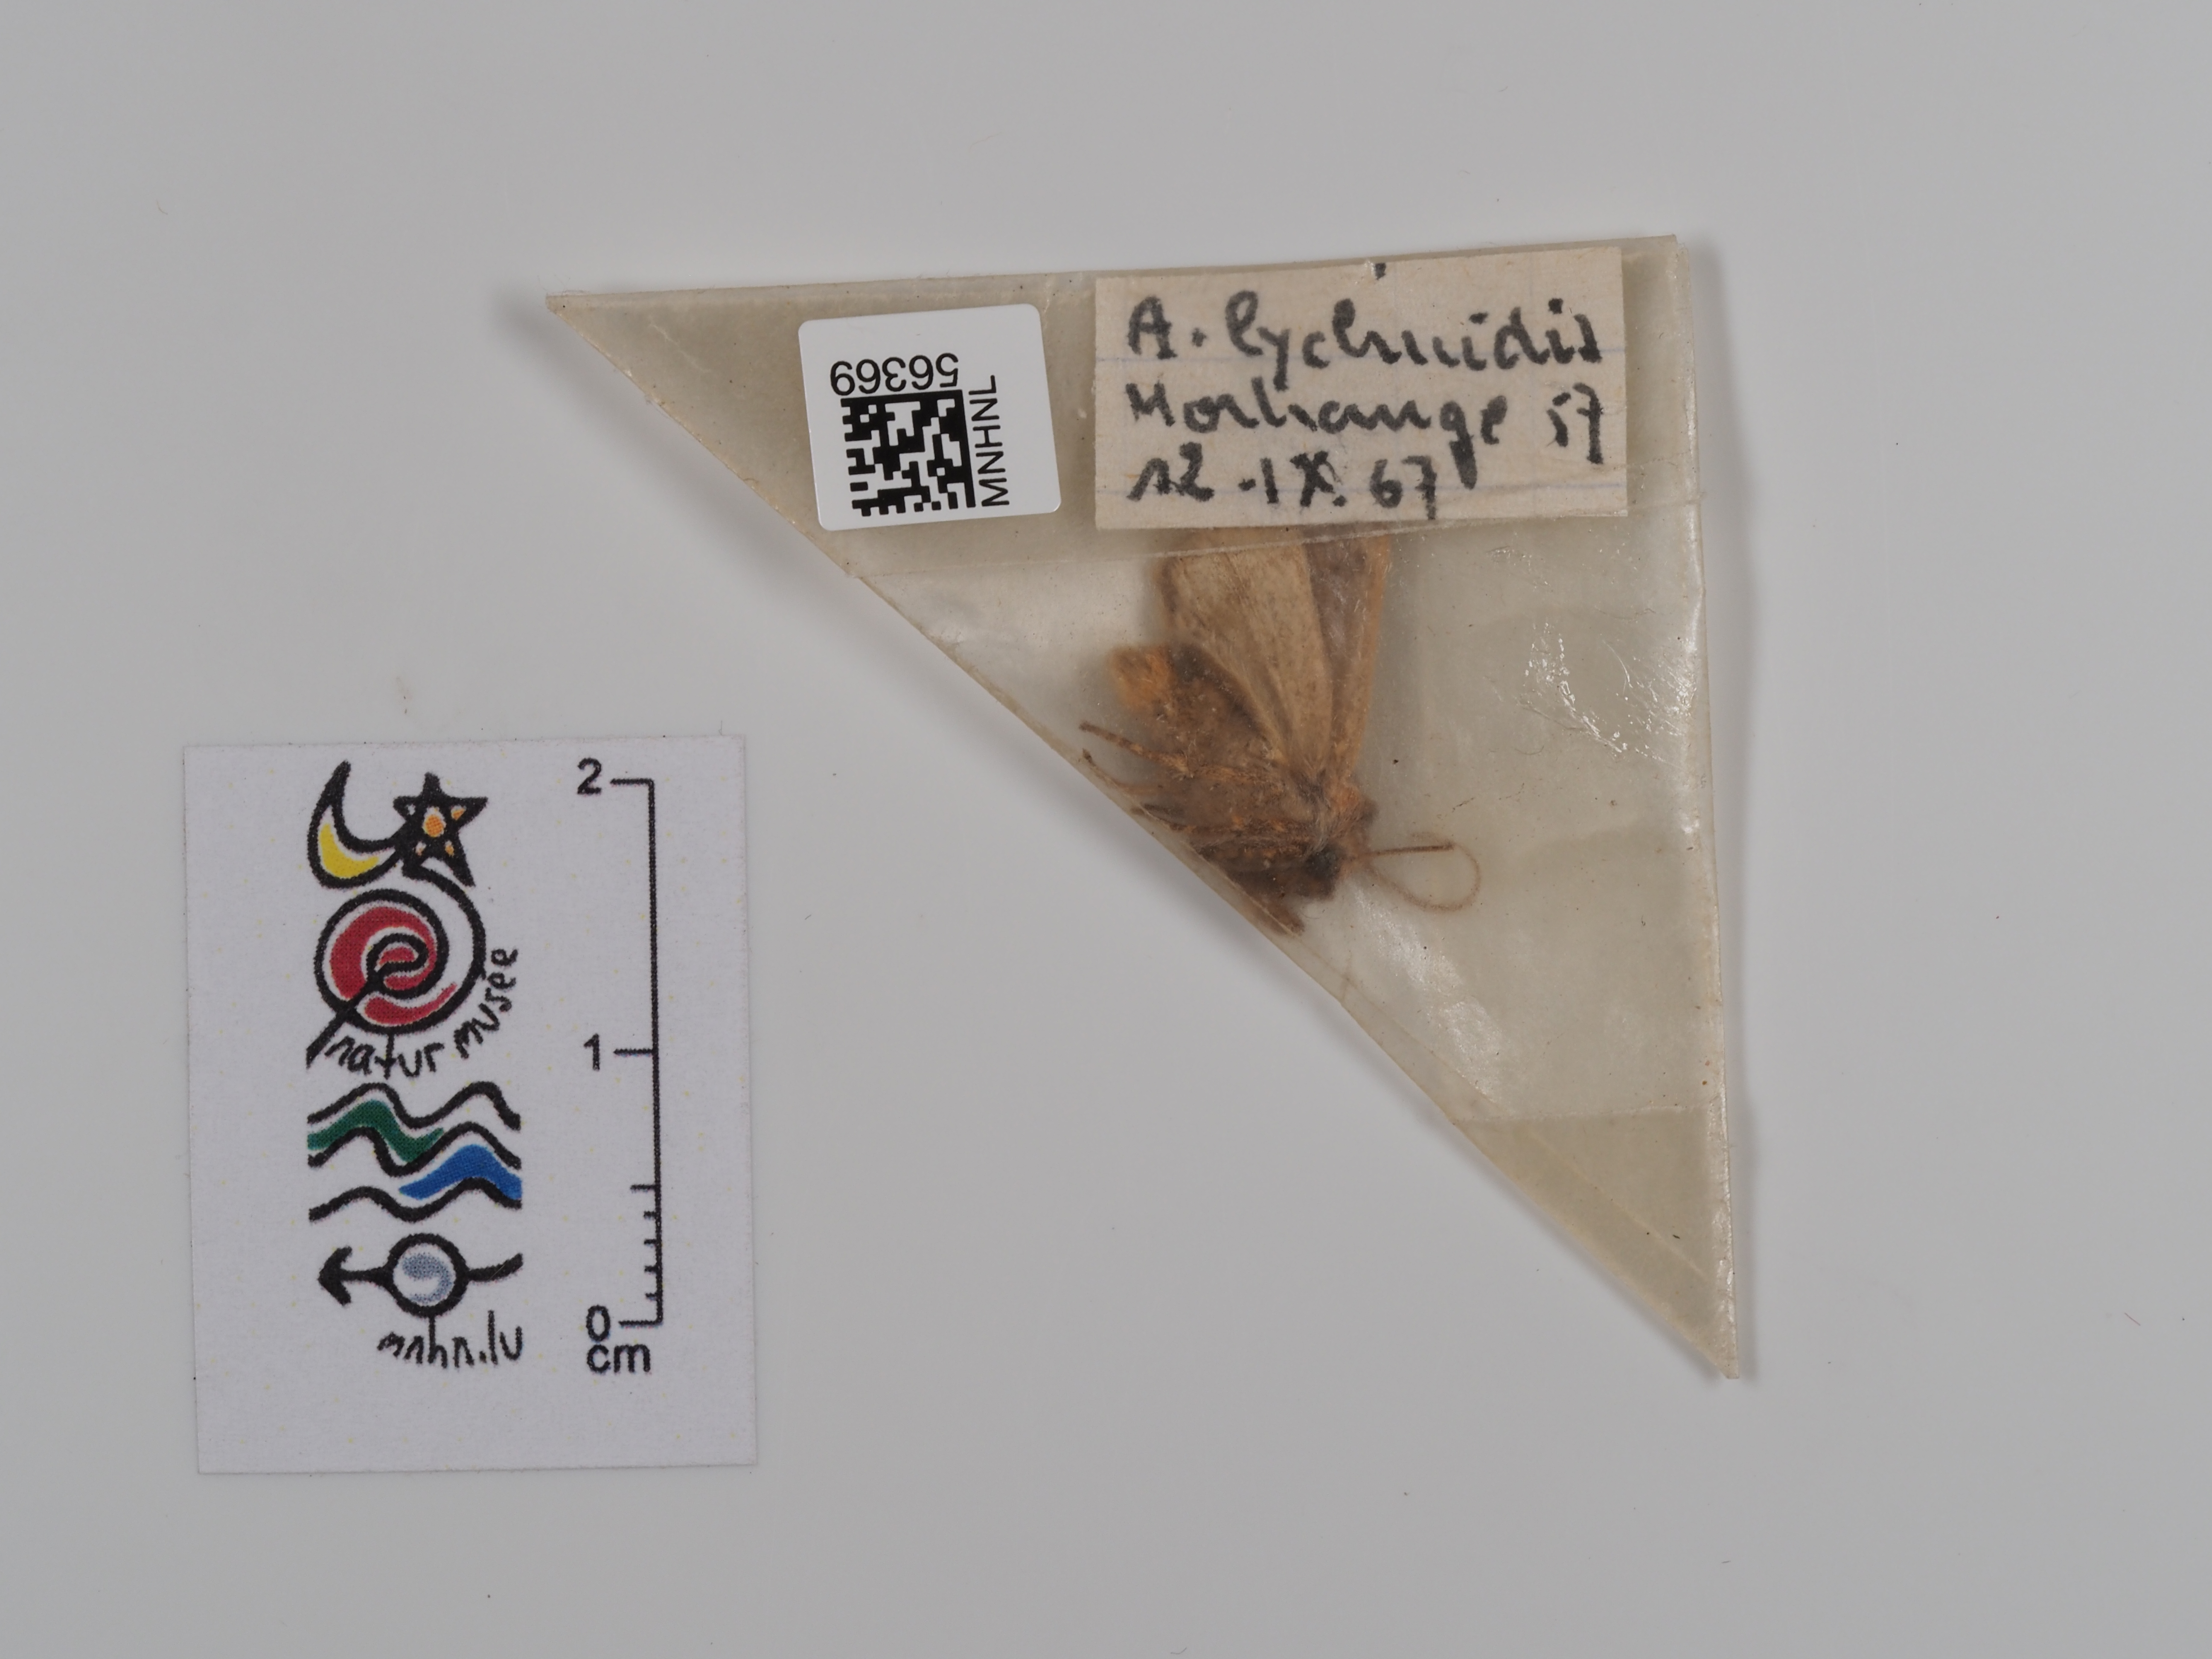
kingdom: Animalia
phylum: Arthropoda
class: Insecta
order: Lepidoptera
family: Noctuidae
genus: Agrochola
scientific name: Agrochola lychnidis
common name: Beaded chestnut
